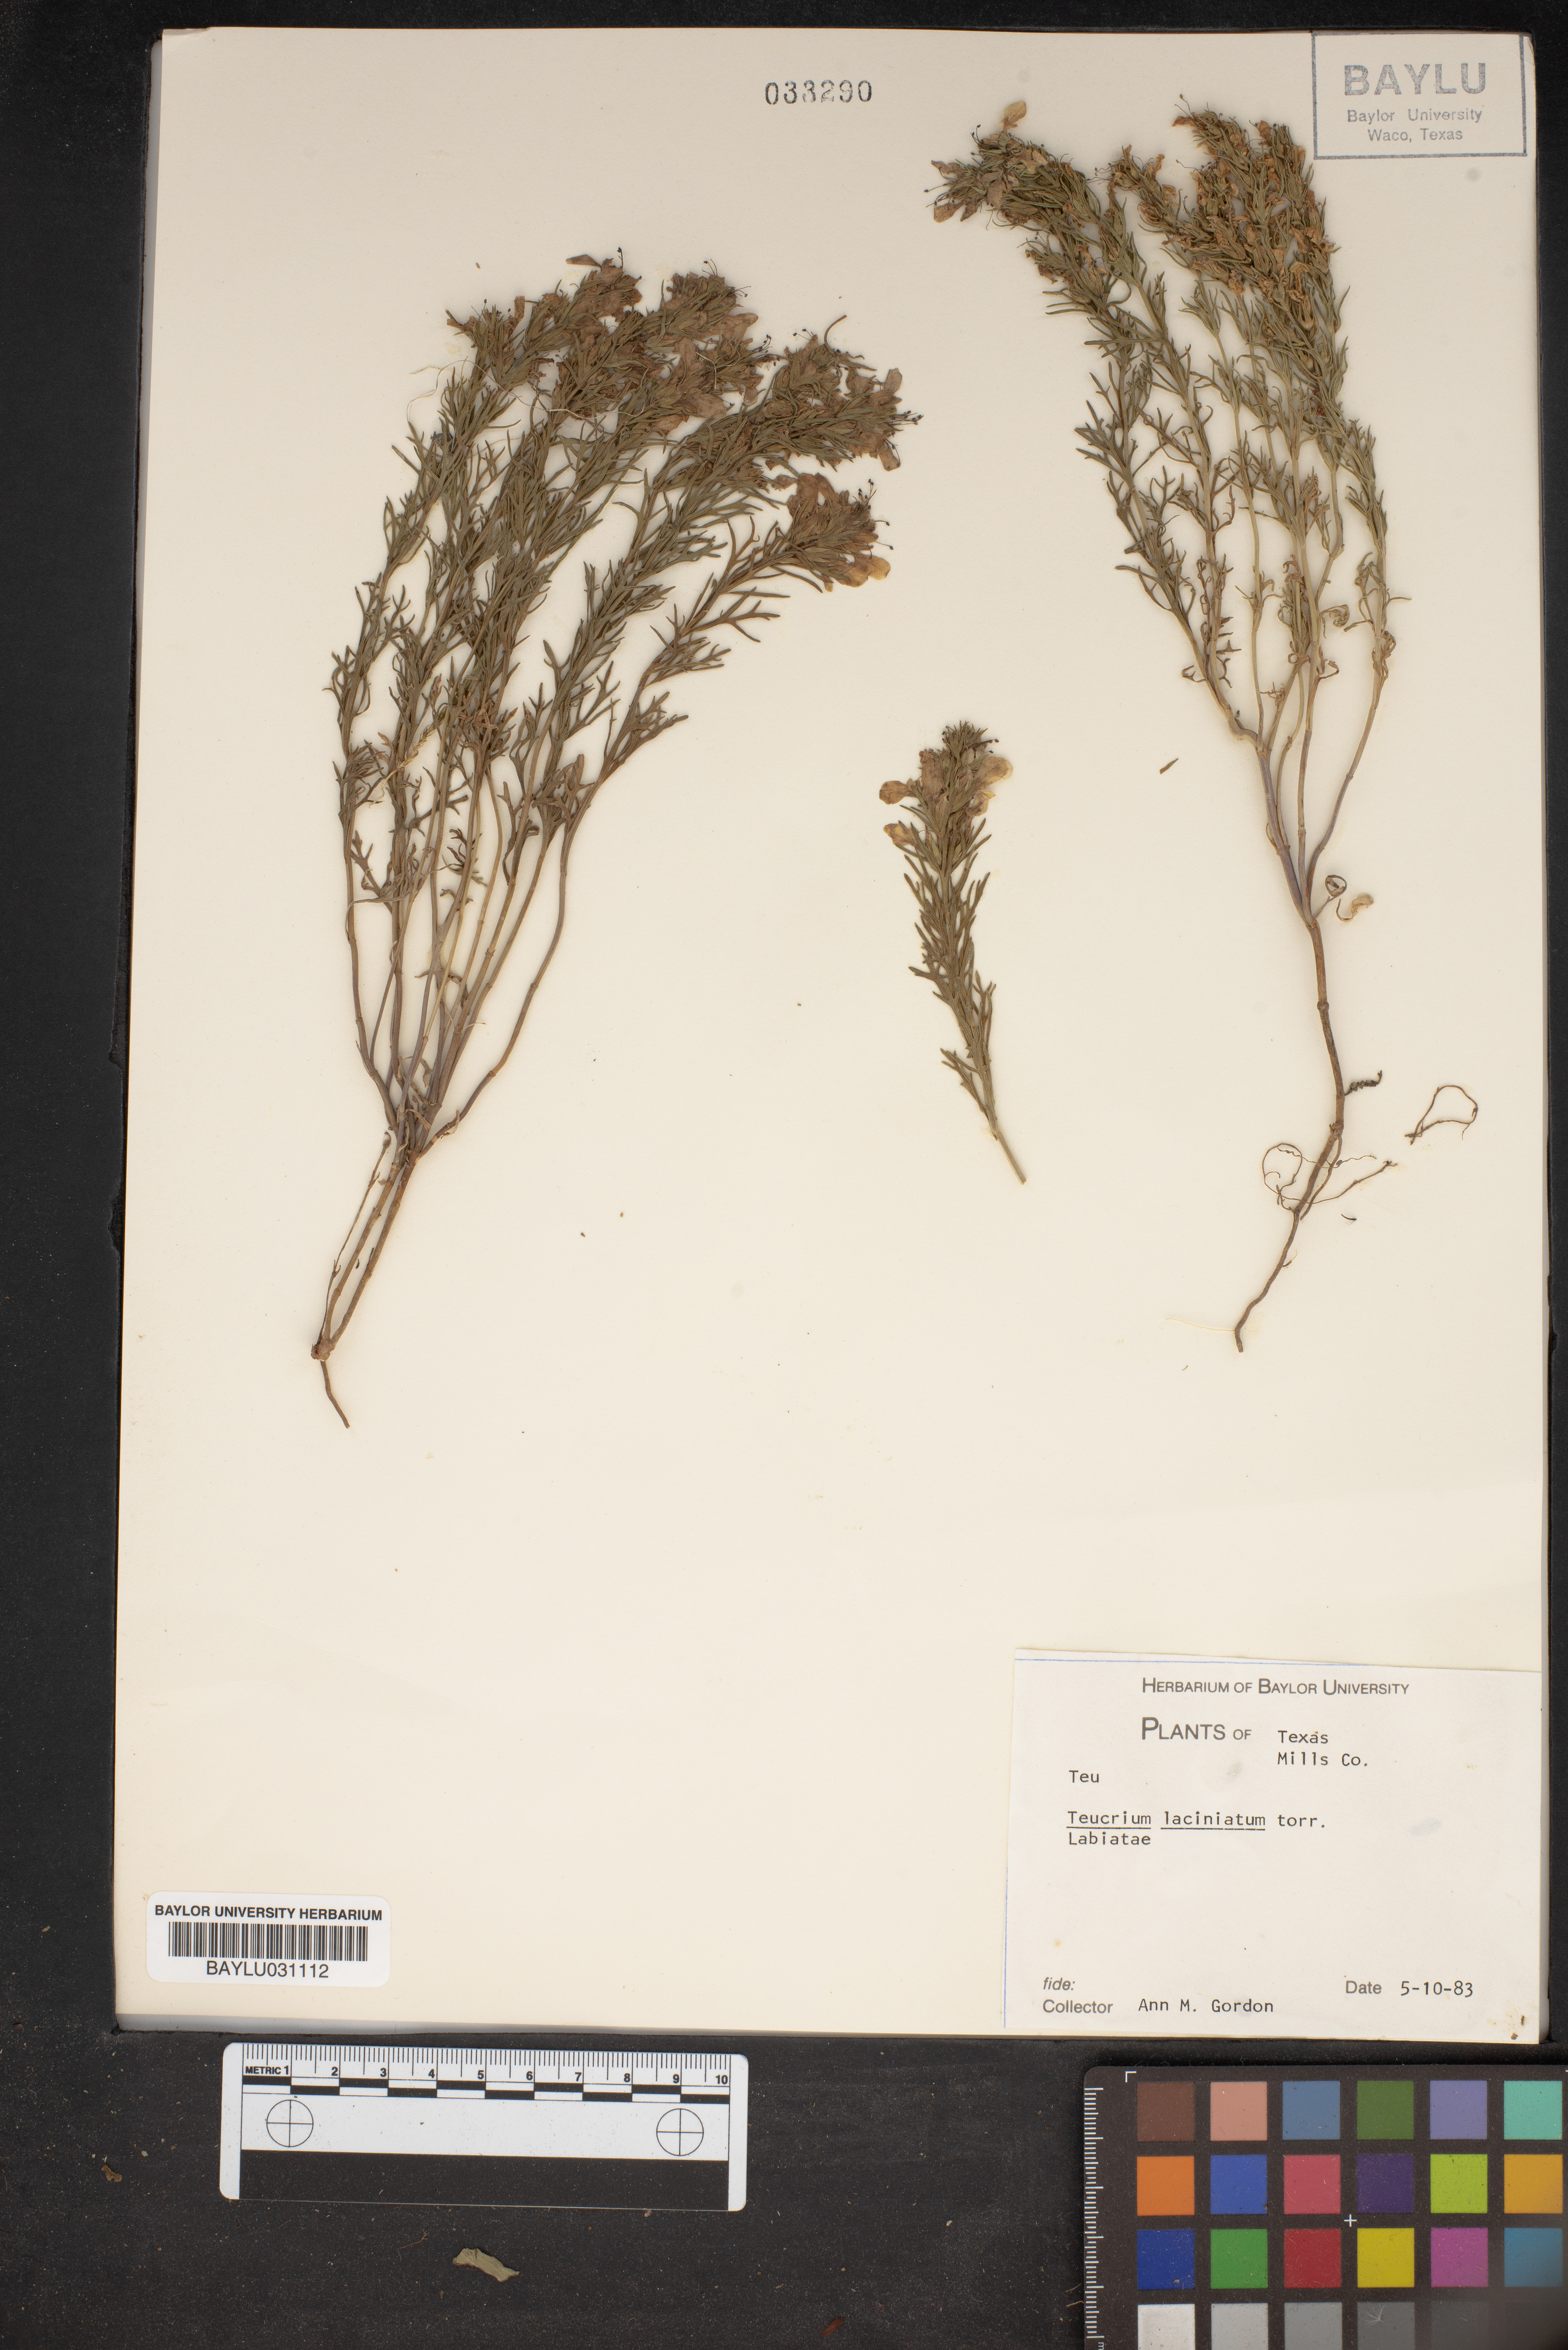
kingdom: Plantae
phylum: Tracheophyta
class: Magnoliopsida
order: Lamiales
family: Lamiaceae
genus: Teucrium
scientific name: Teucrium laciniatum
